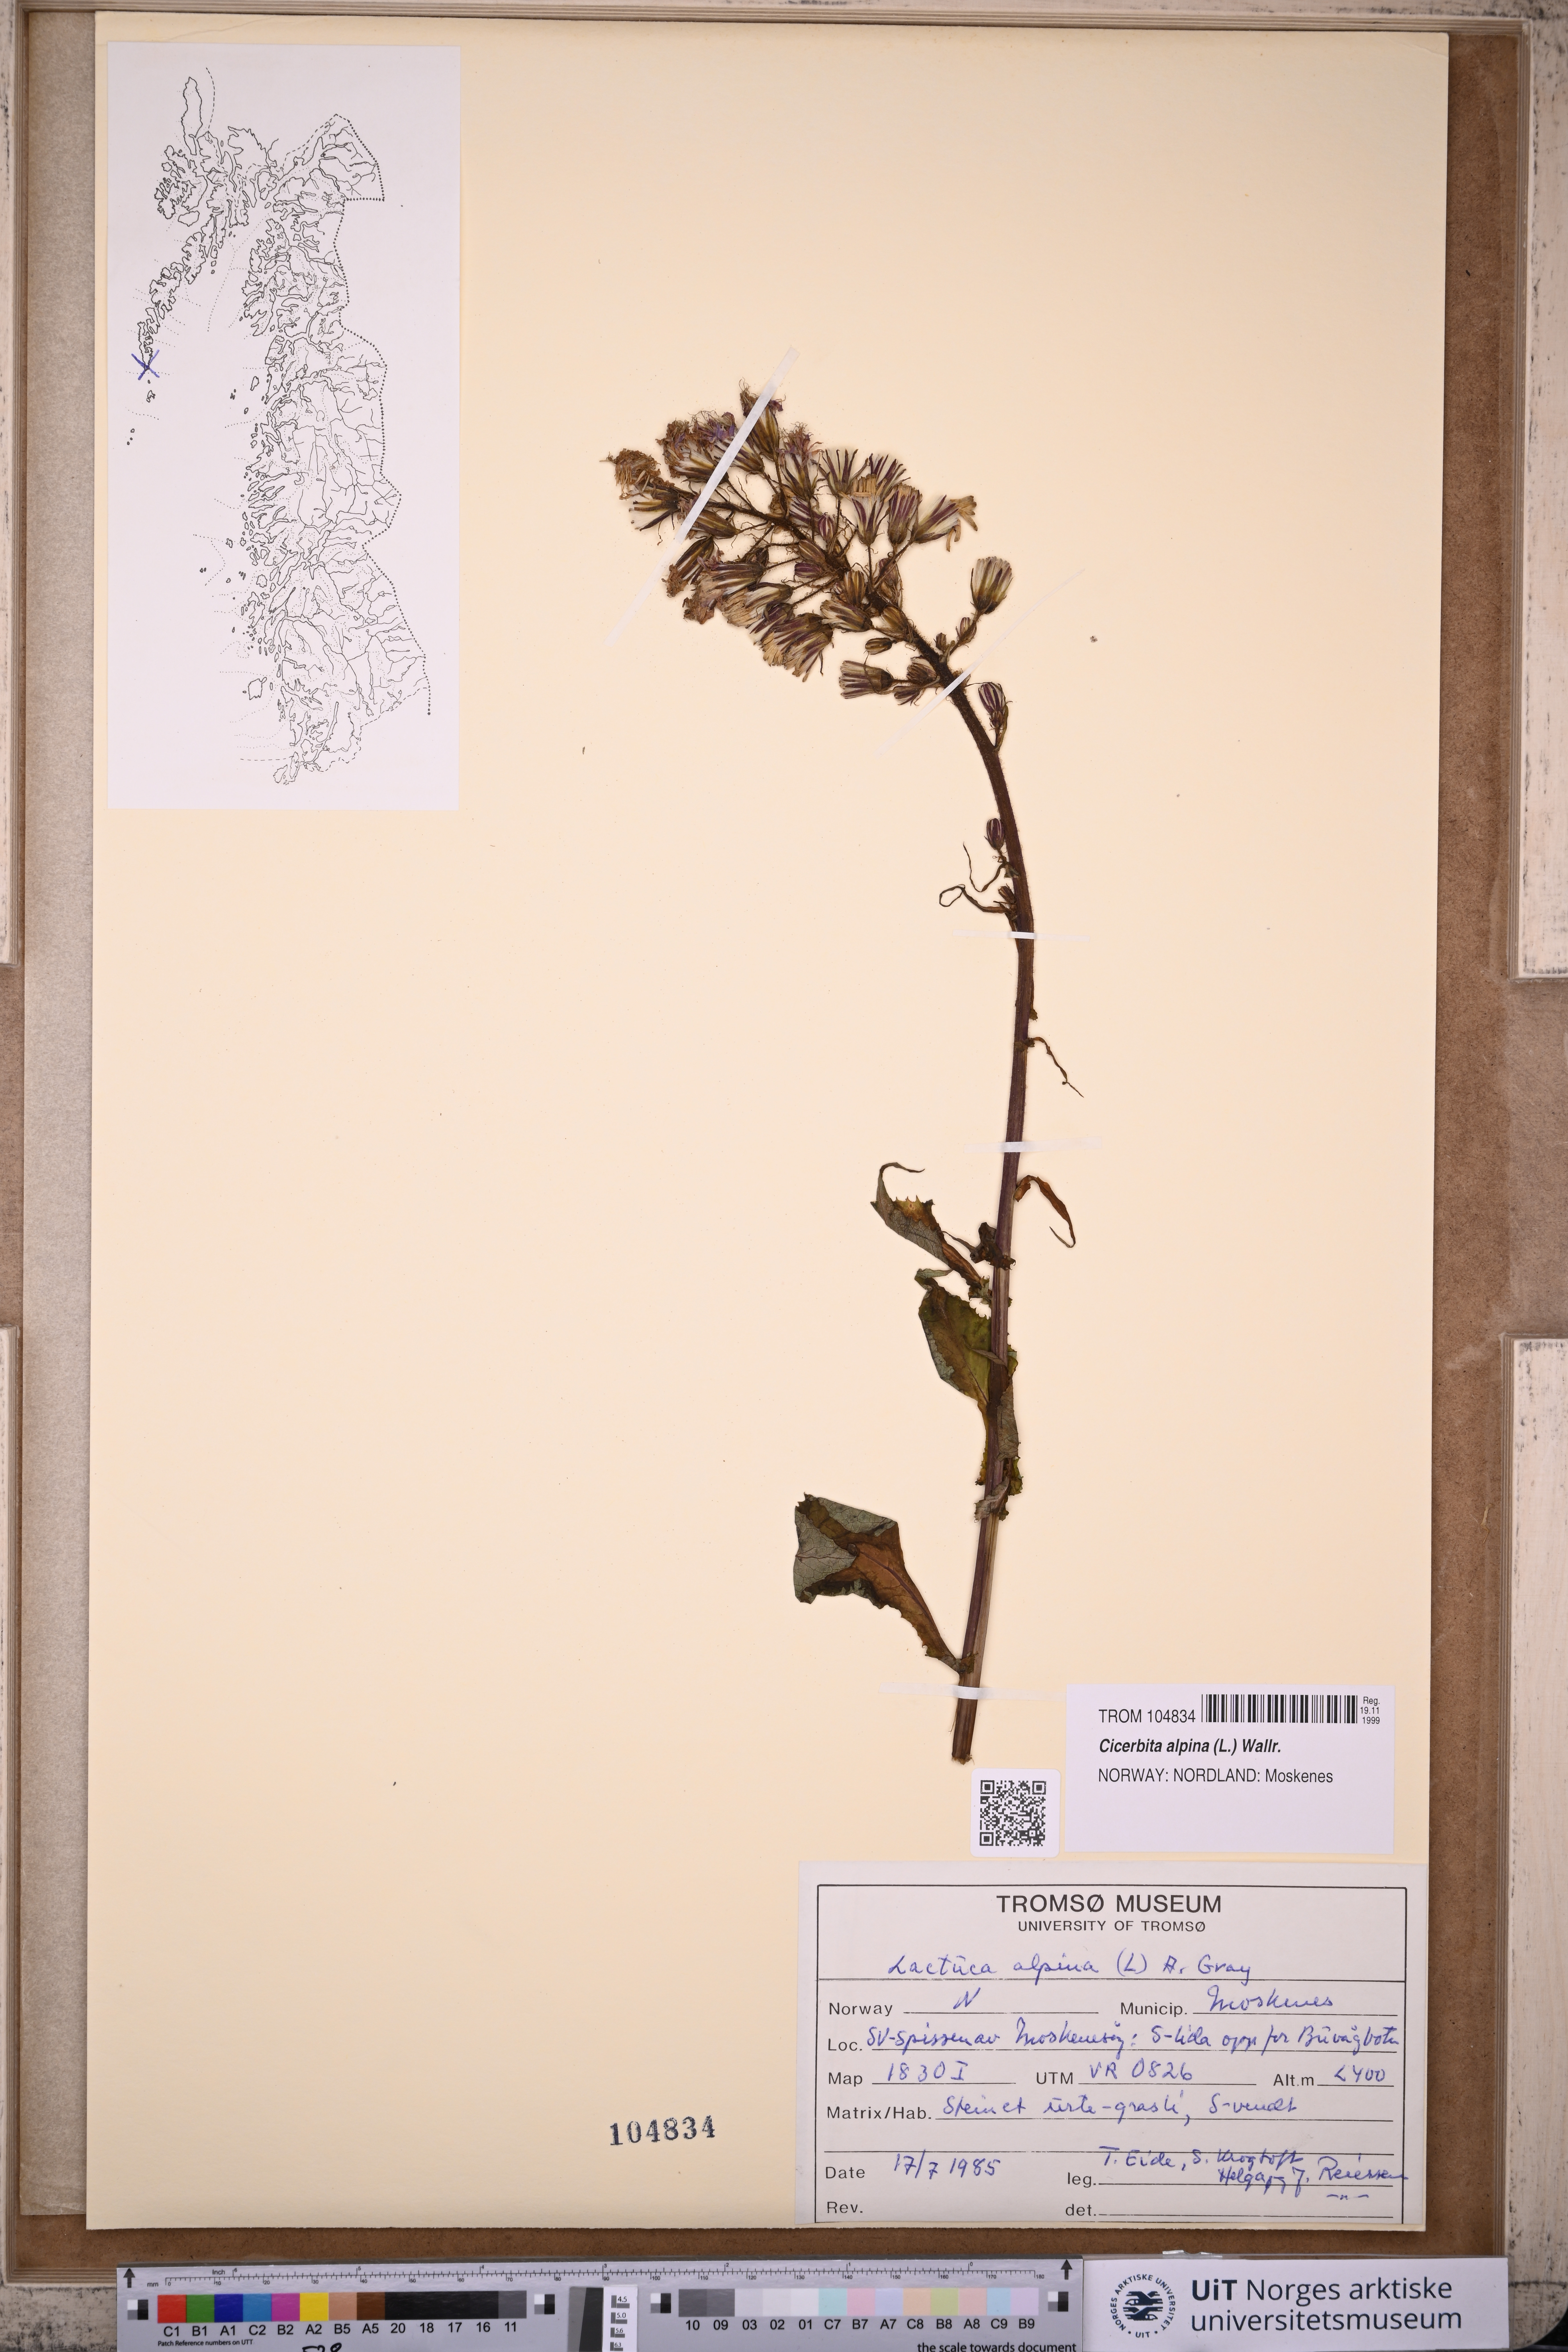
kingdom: Plantae
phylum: Tracheophyta
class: Magnoliopsida
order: Asterales
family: Asteraceae
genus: Cicerbita
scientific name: Cicerbita alpina
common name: Alpine blue-sow-thistle
